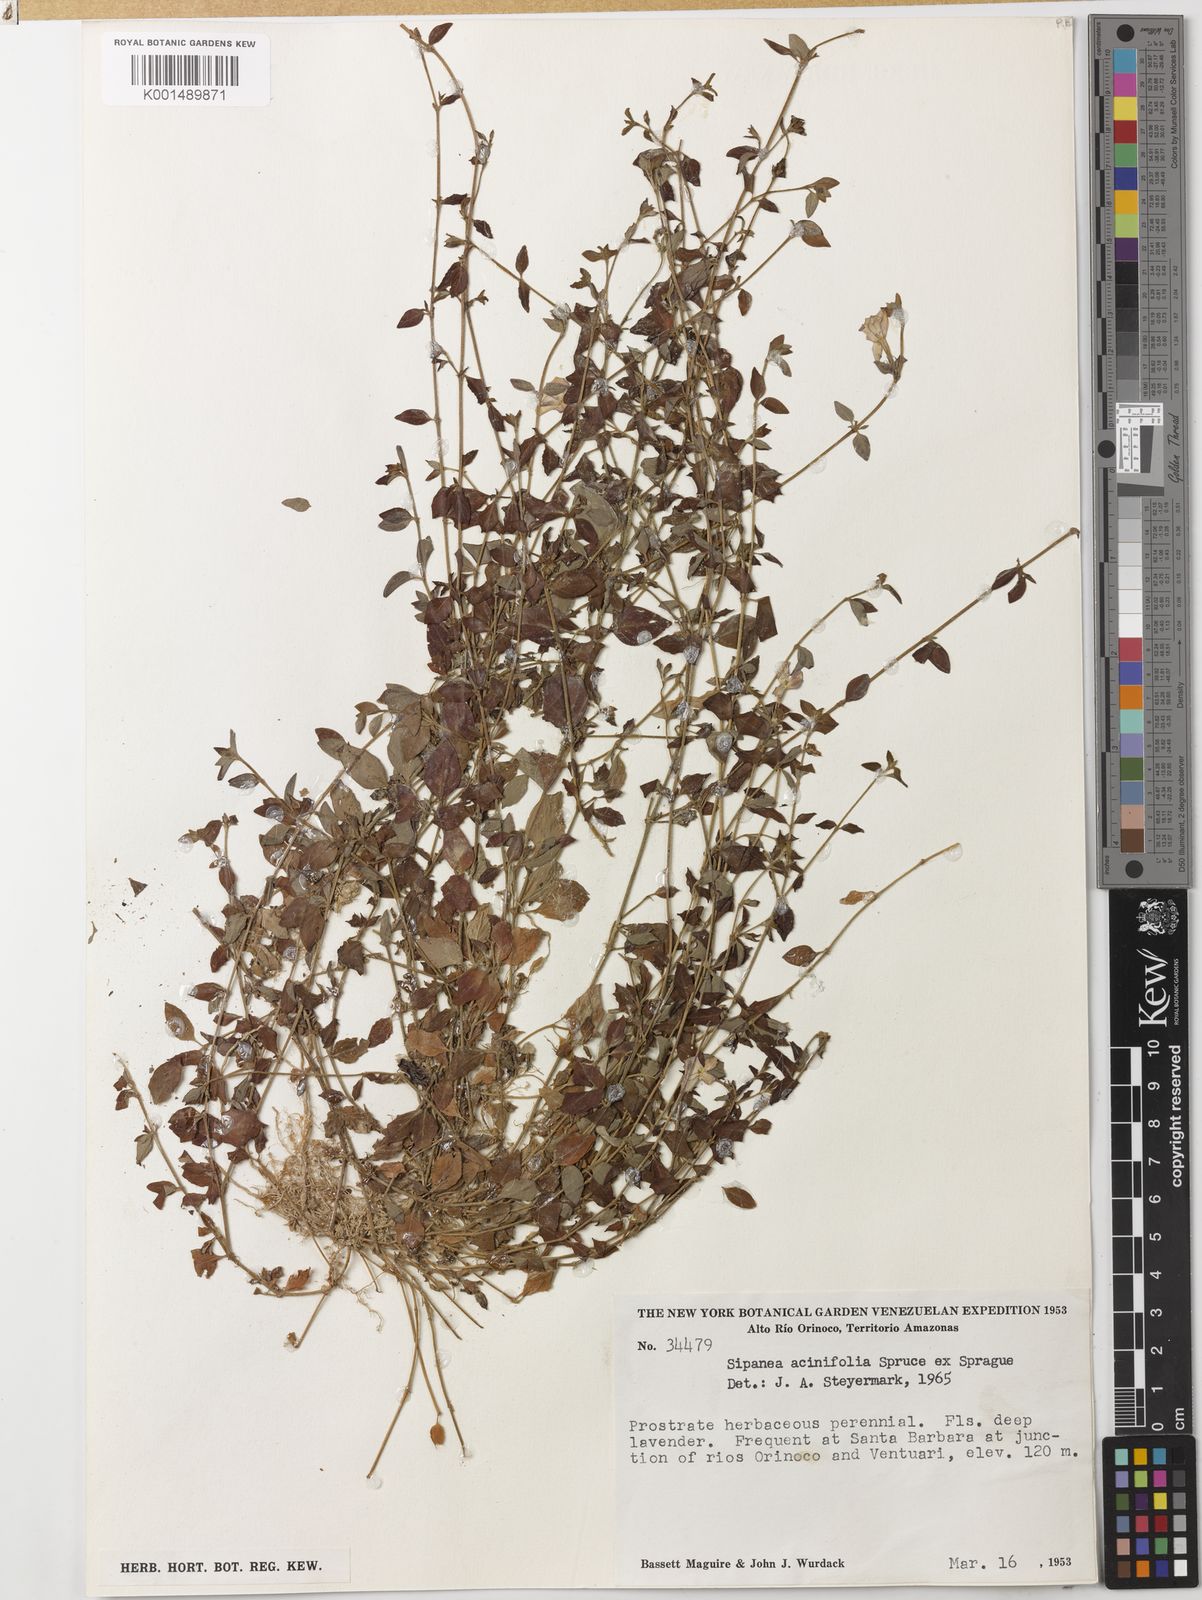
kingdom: Plantae
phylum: Tracheophyta
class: Magnoliopsida
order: Gentianales
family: Rubiaceae
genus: Sipanea
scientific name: Sipanea veris
